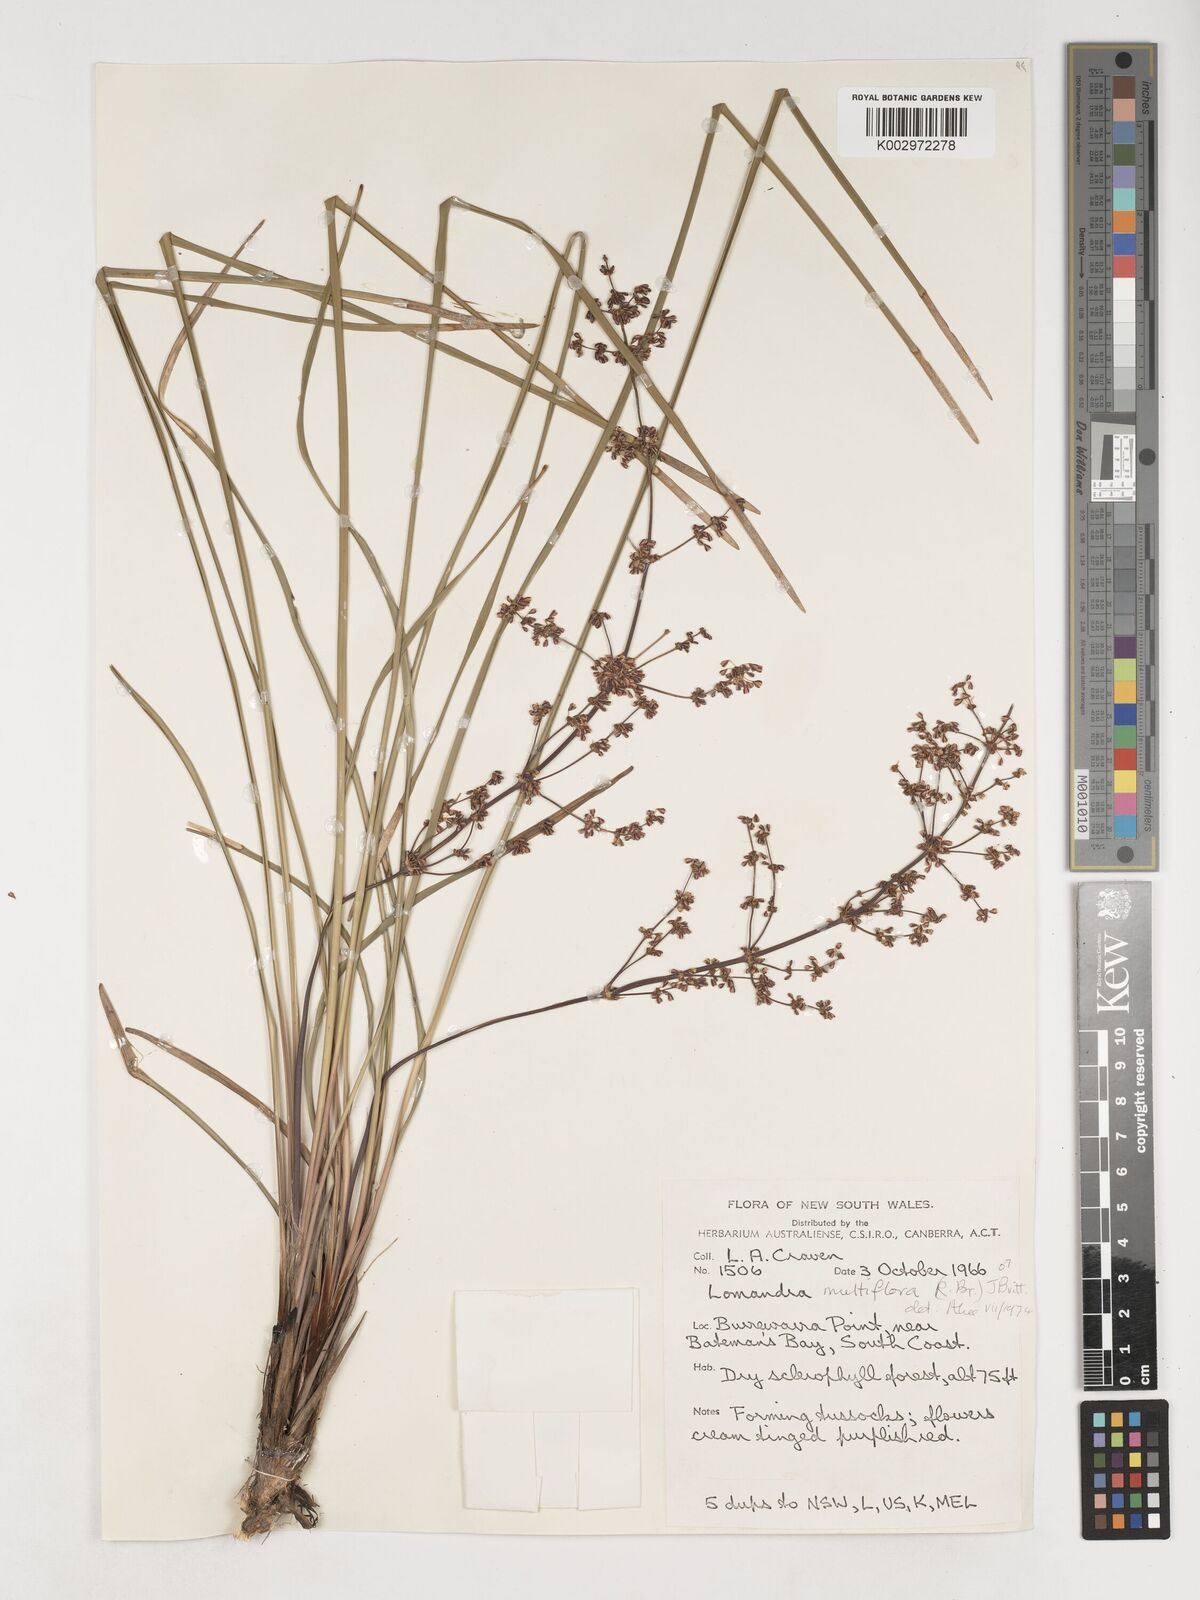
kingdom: Plantae
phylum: Tracheophyta
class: Liliopsida
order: Asparagales
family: Asparagaceae
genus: Lomandra
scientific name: Lomandra
